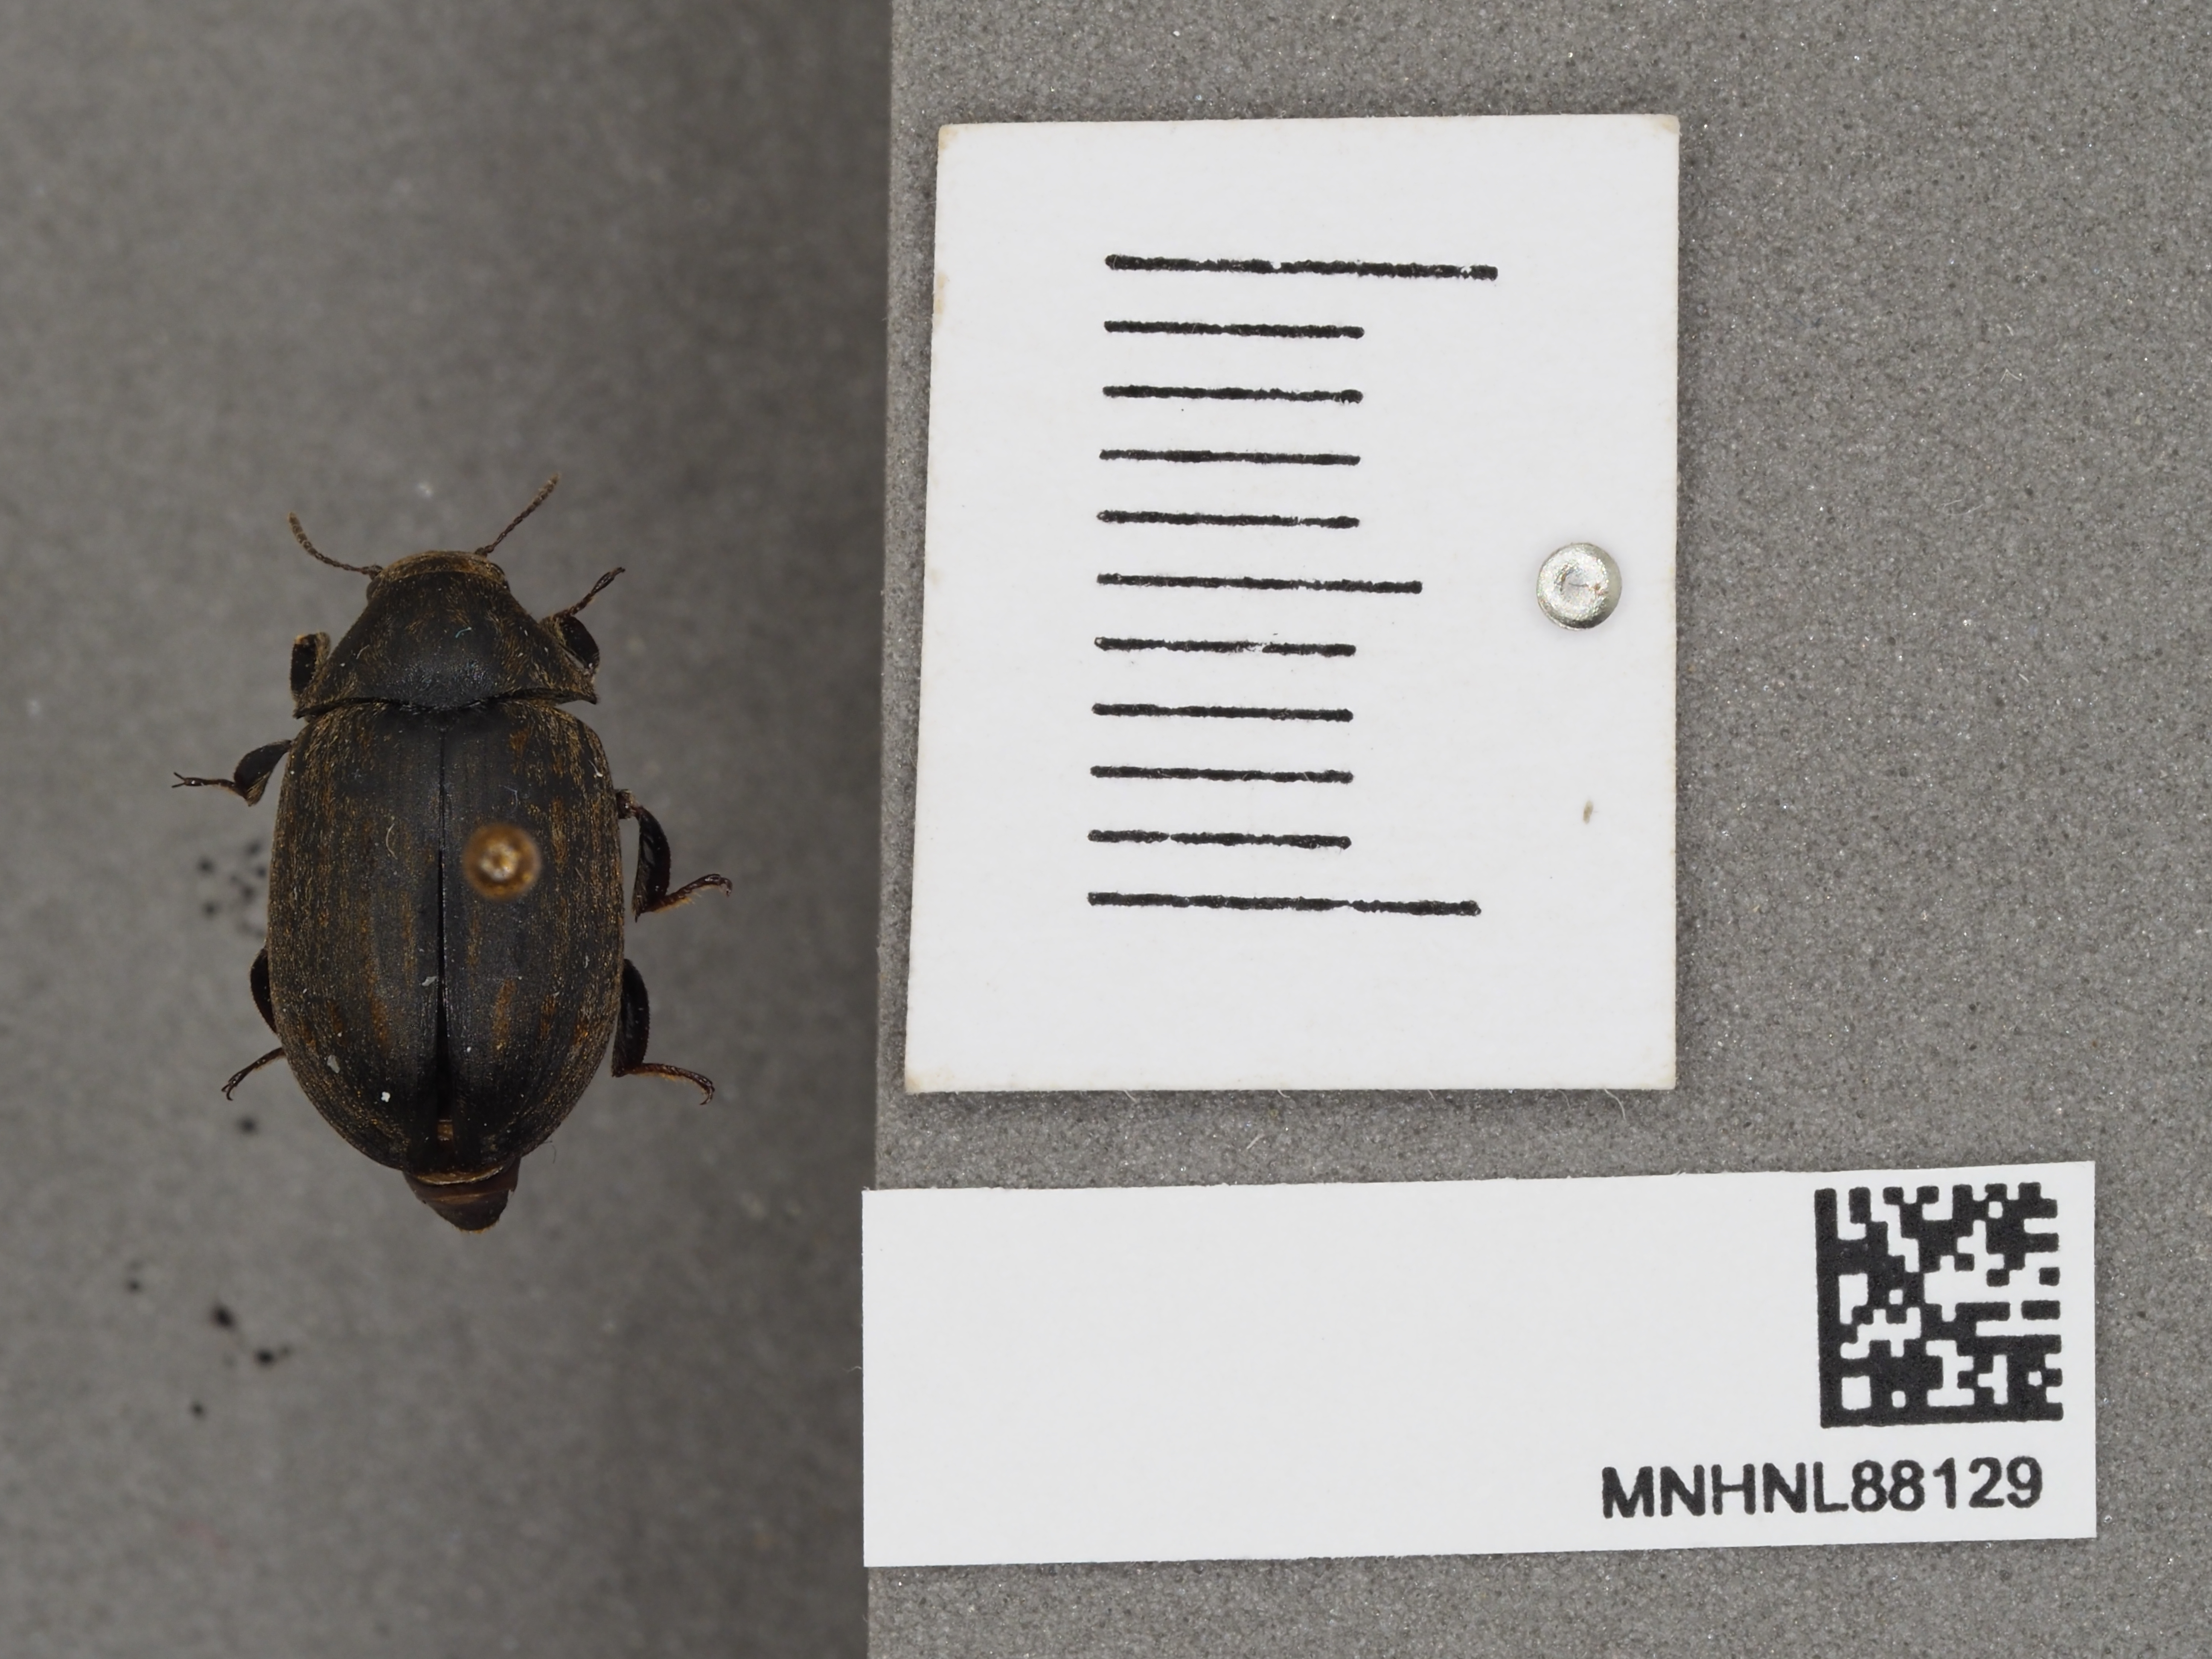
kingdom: Animalia
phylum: Arthropoda
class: Insecta
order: Coleoptera
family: Byrrhidae
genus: Byrrhus
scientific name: Byrrhus pilula
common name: Pill beetle
